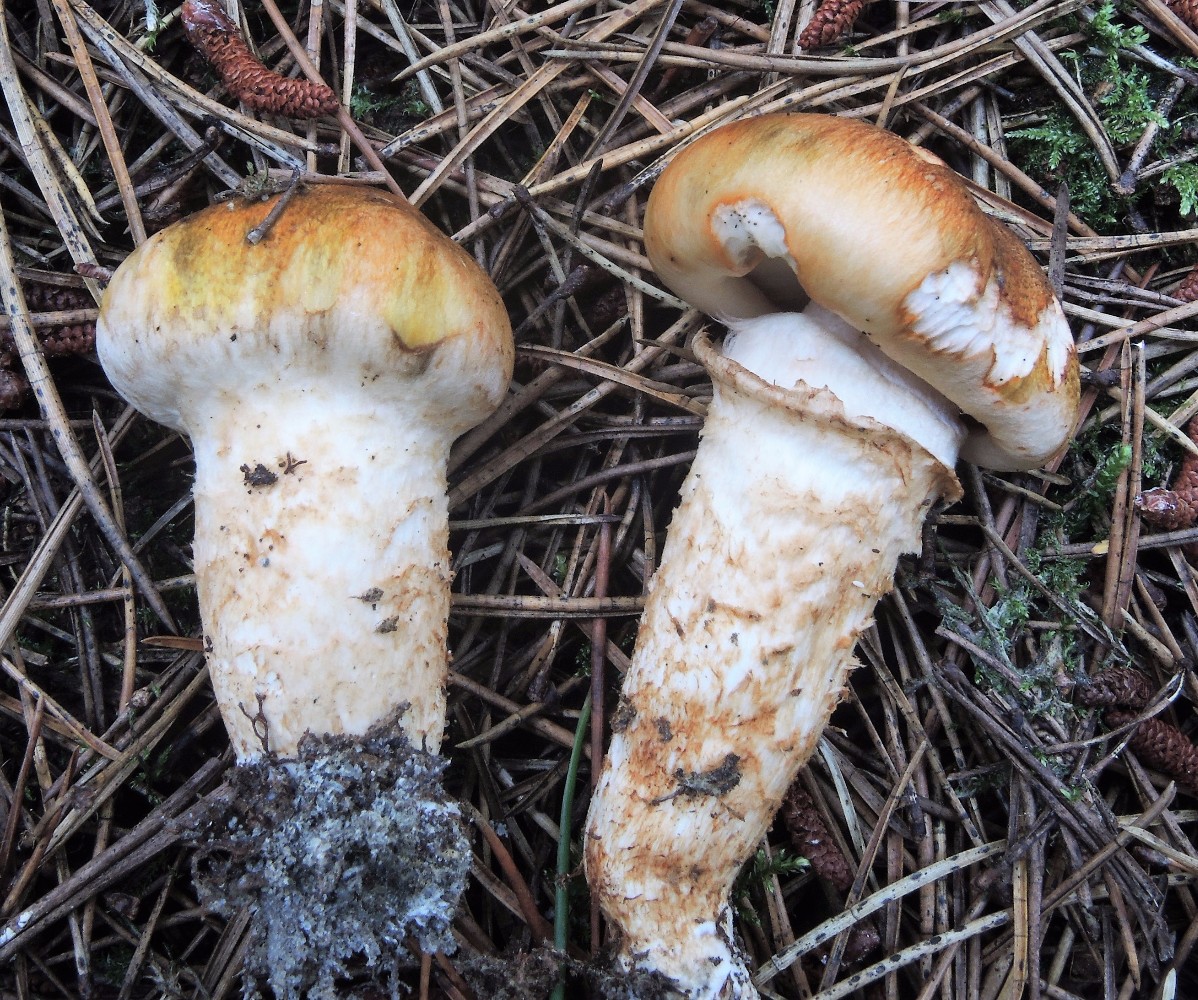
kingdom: Fungi
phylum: Basidiomycota
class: Agaricomycetes
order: Agaricales
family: Tricholomataceae
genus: Tricholoma
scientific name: Tricholoma focale
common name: halsbånd-ridderhat
